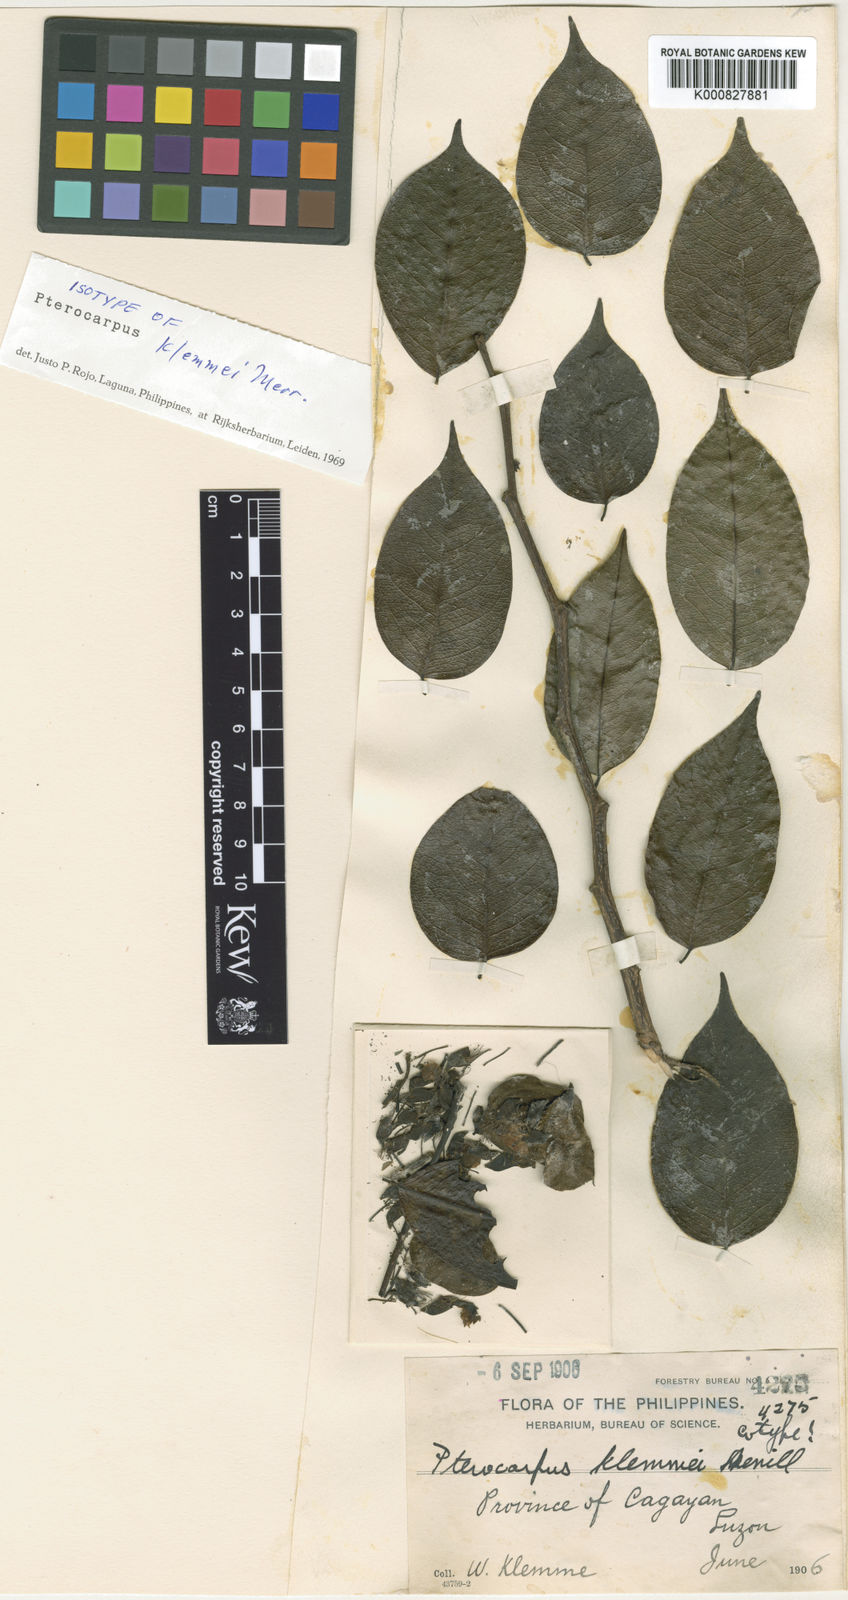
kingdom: Plantae
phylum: Tracheophyta
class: Magnoliopsida
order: Fabales
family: Fabaceae
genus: Pterocarpus
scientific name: Pterocarpus indicus
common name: Burmese rosewood
